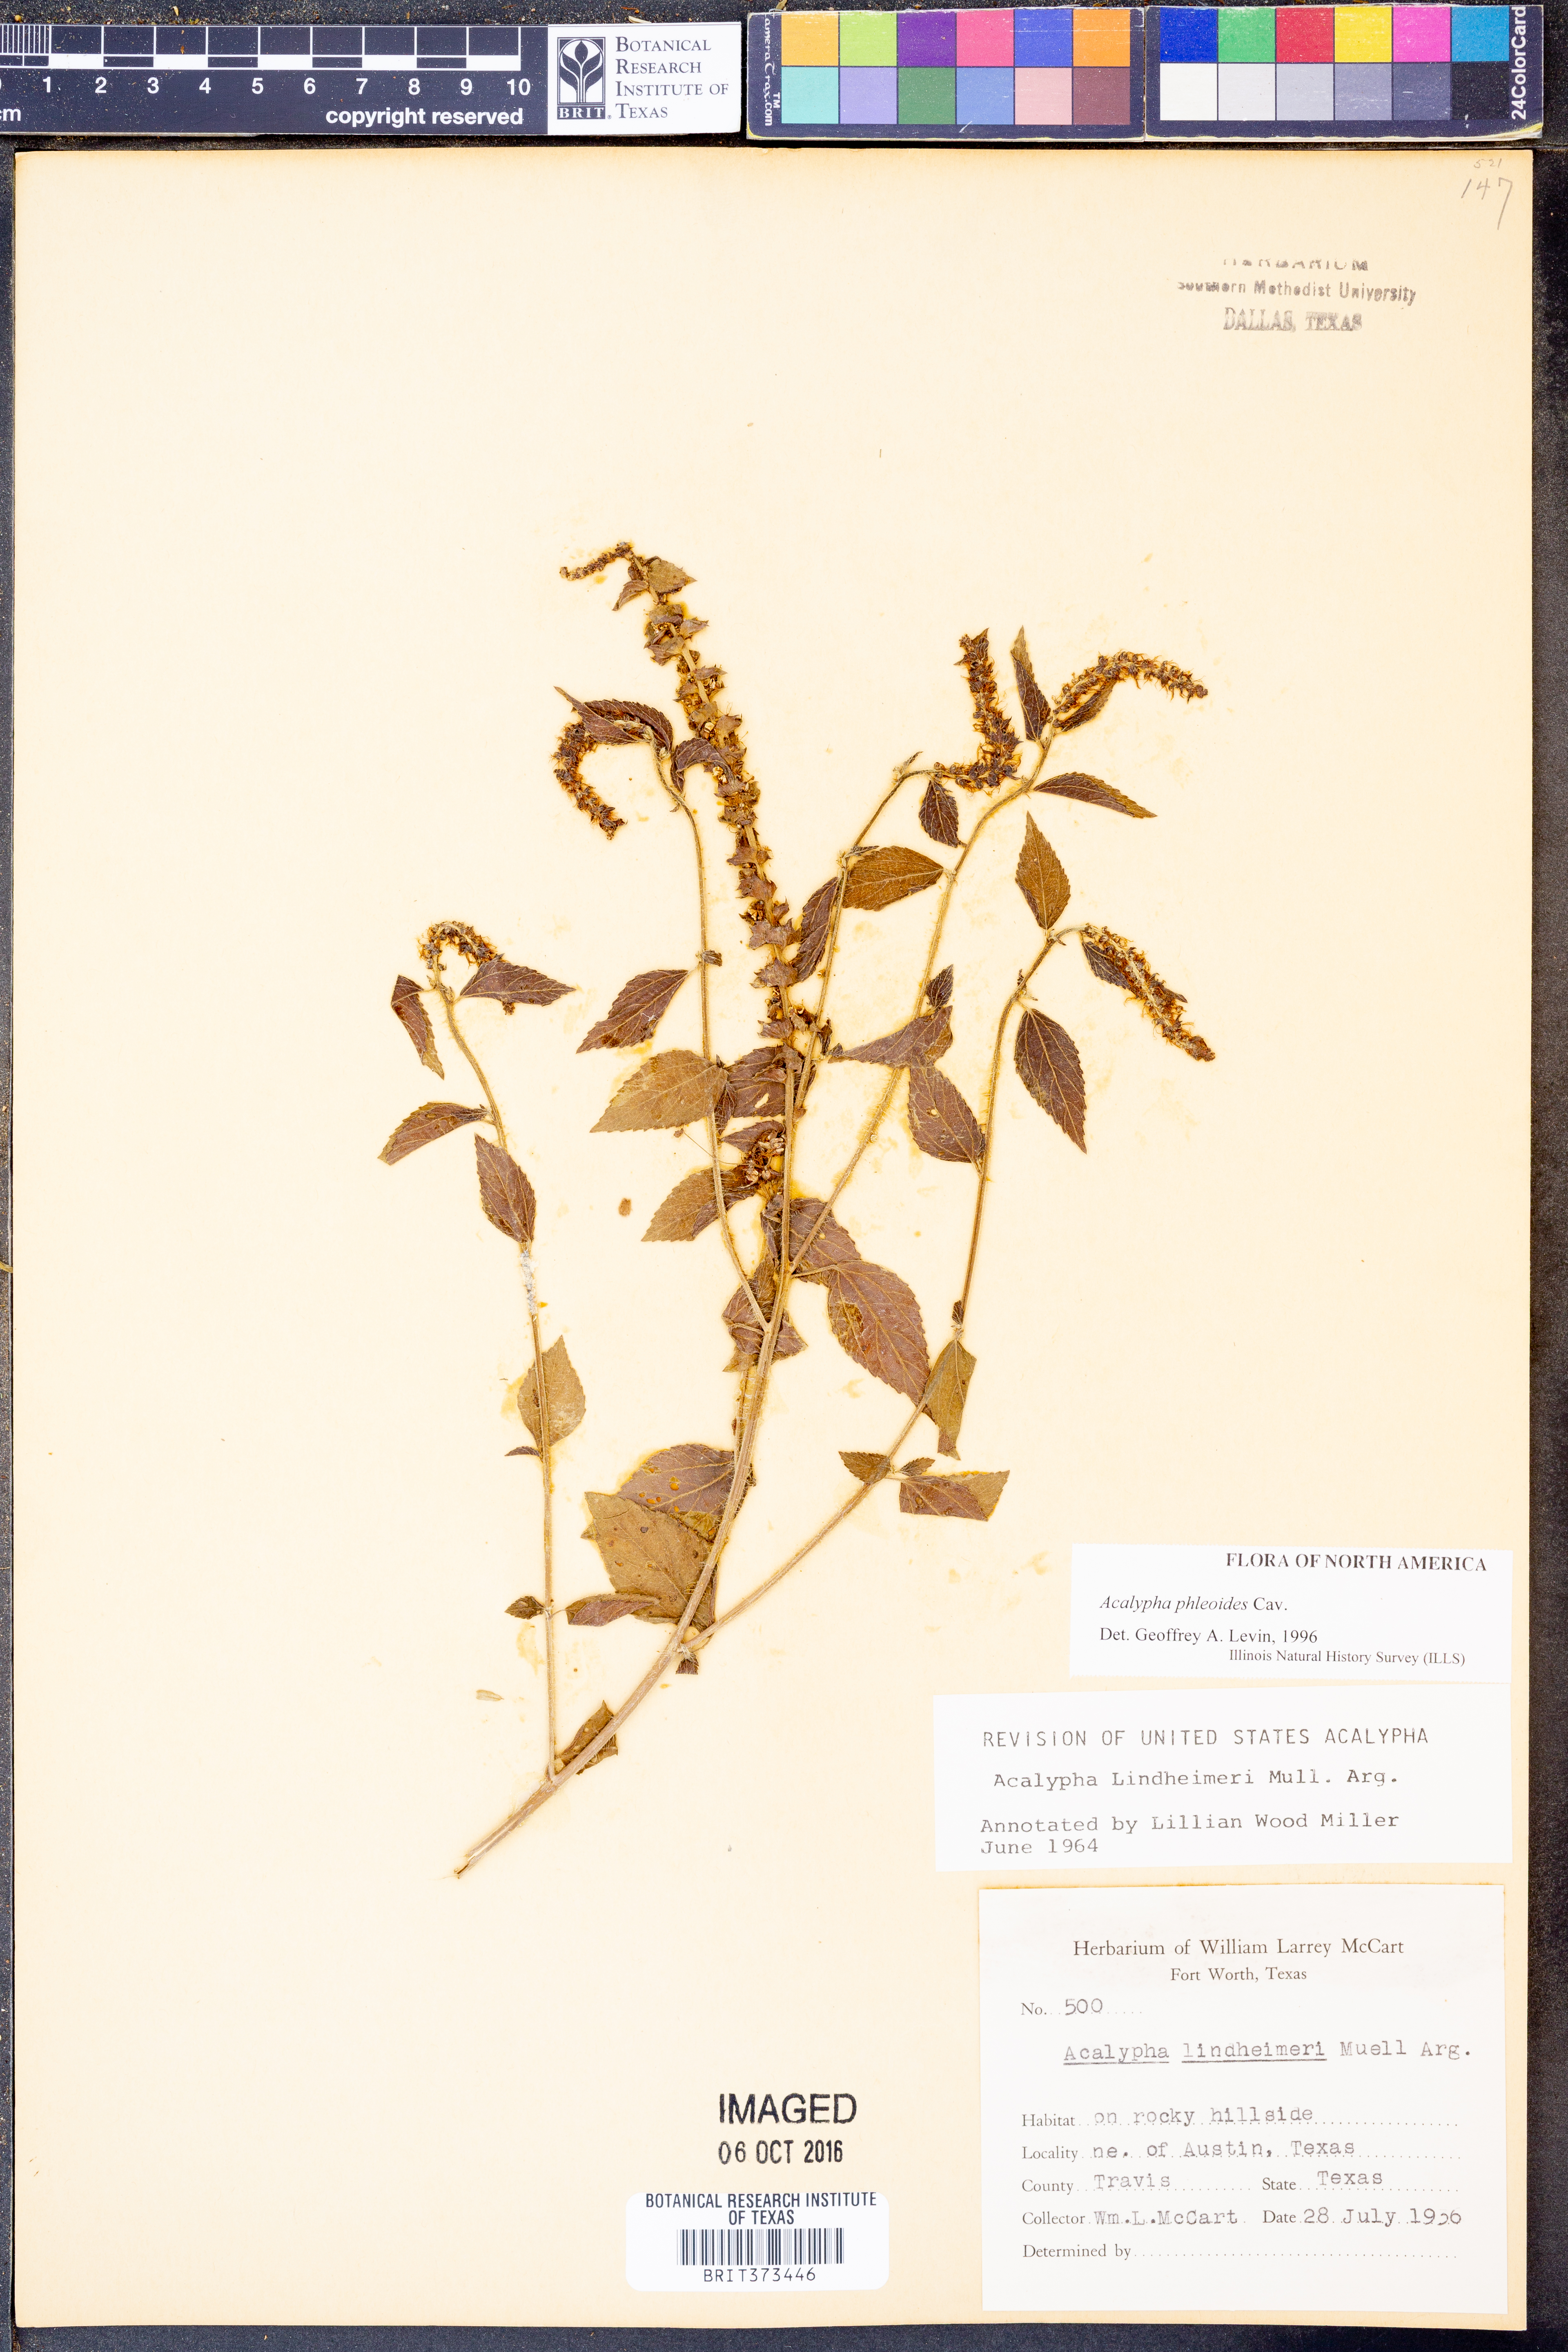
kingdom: Plantae
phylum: Tracheophyta
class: Magnoliopsida
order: Malpighiales
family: Euphorbiaceae
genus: Acalypha
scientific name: Acalypha phleoides
